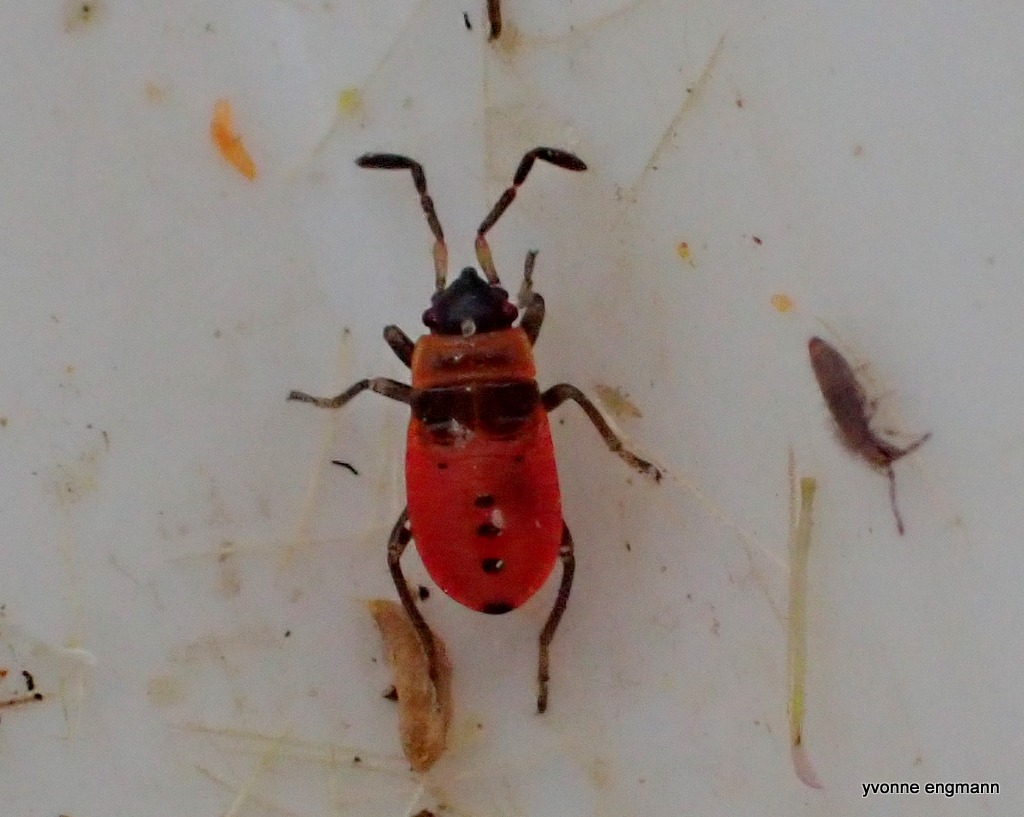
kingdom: Animalia
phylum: Arthropoda
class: Insecta
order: Hemiptera
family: Pyrrhocoridae
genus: Pyrrhocoris
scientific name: Pyrrhocoris apterus
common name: Ildtæge
